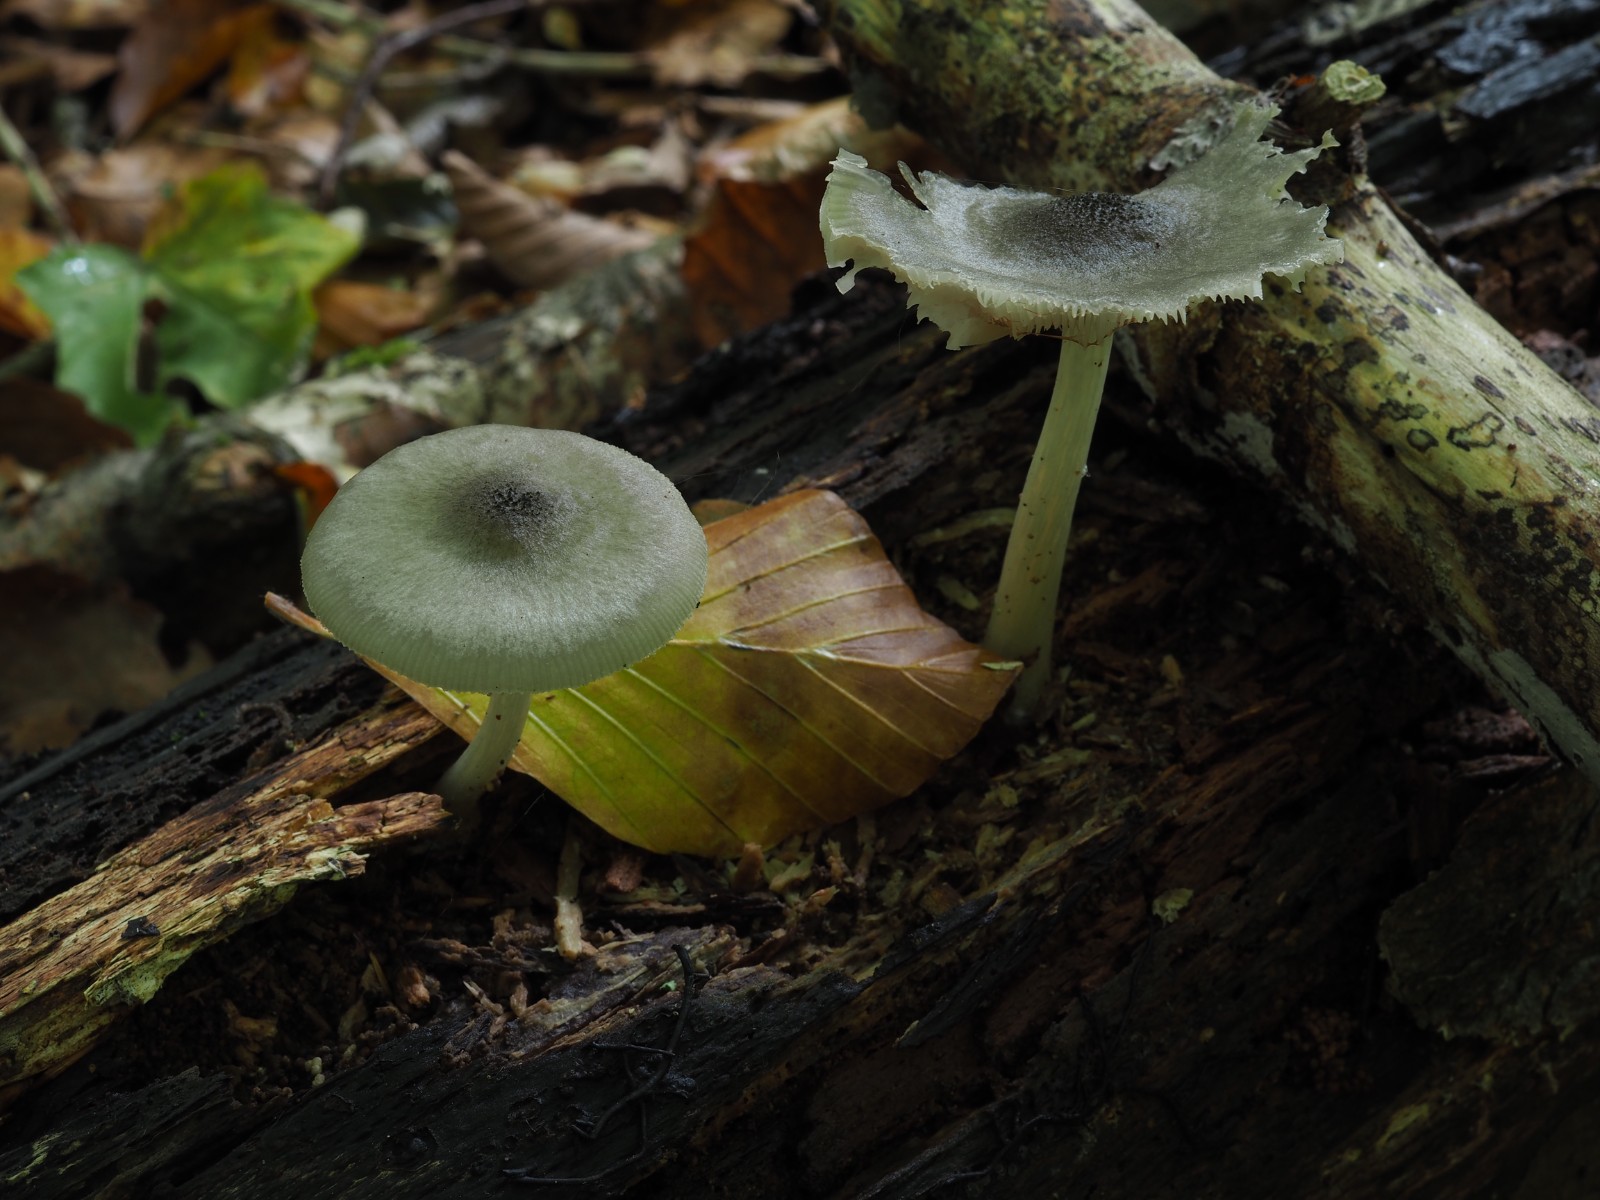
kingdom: Fungi
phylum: Basidiomycota
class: Agaricomycetes
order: Agaricales
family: Pluteaceae
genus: Pluteus
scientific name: Pluteus salicinus
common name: stiv skærmhat
